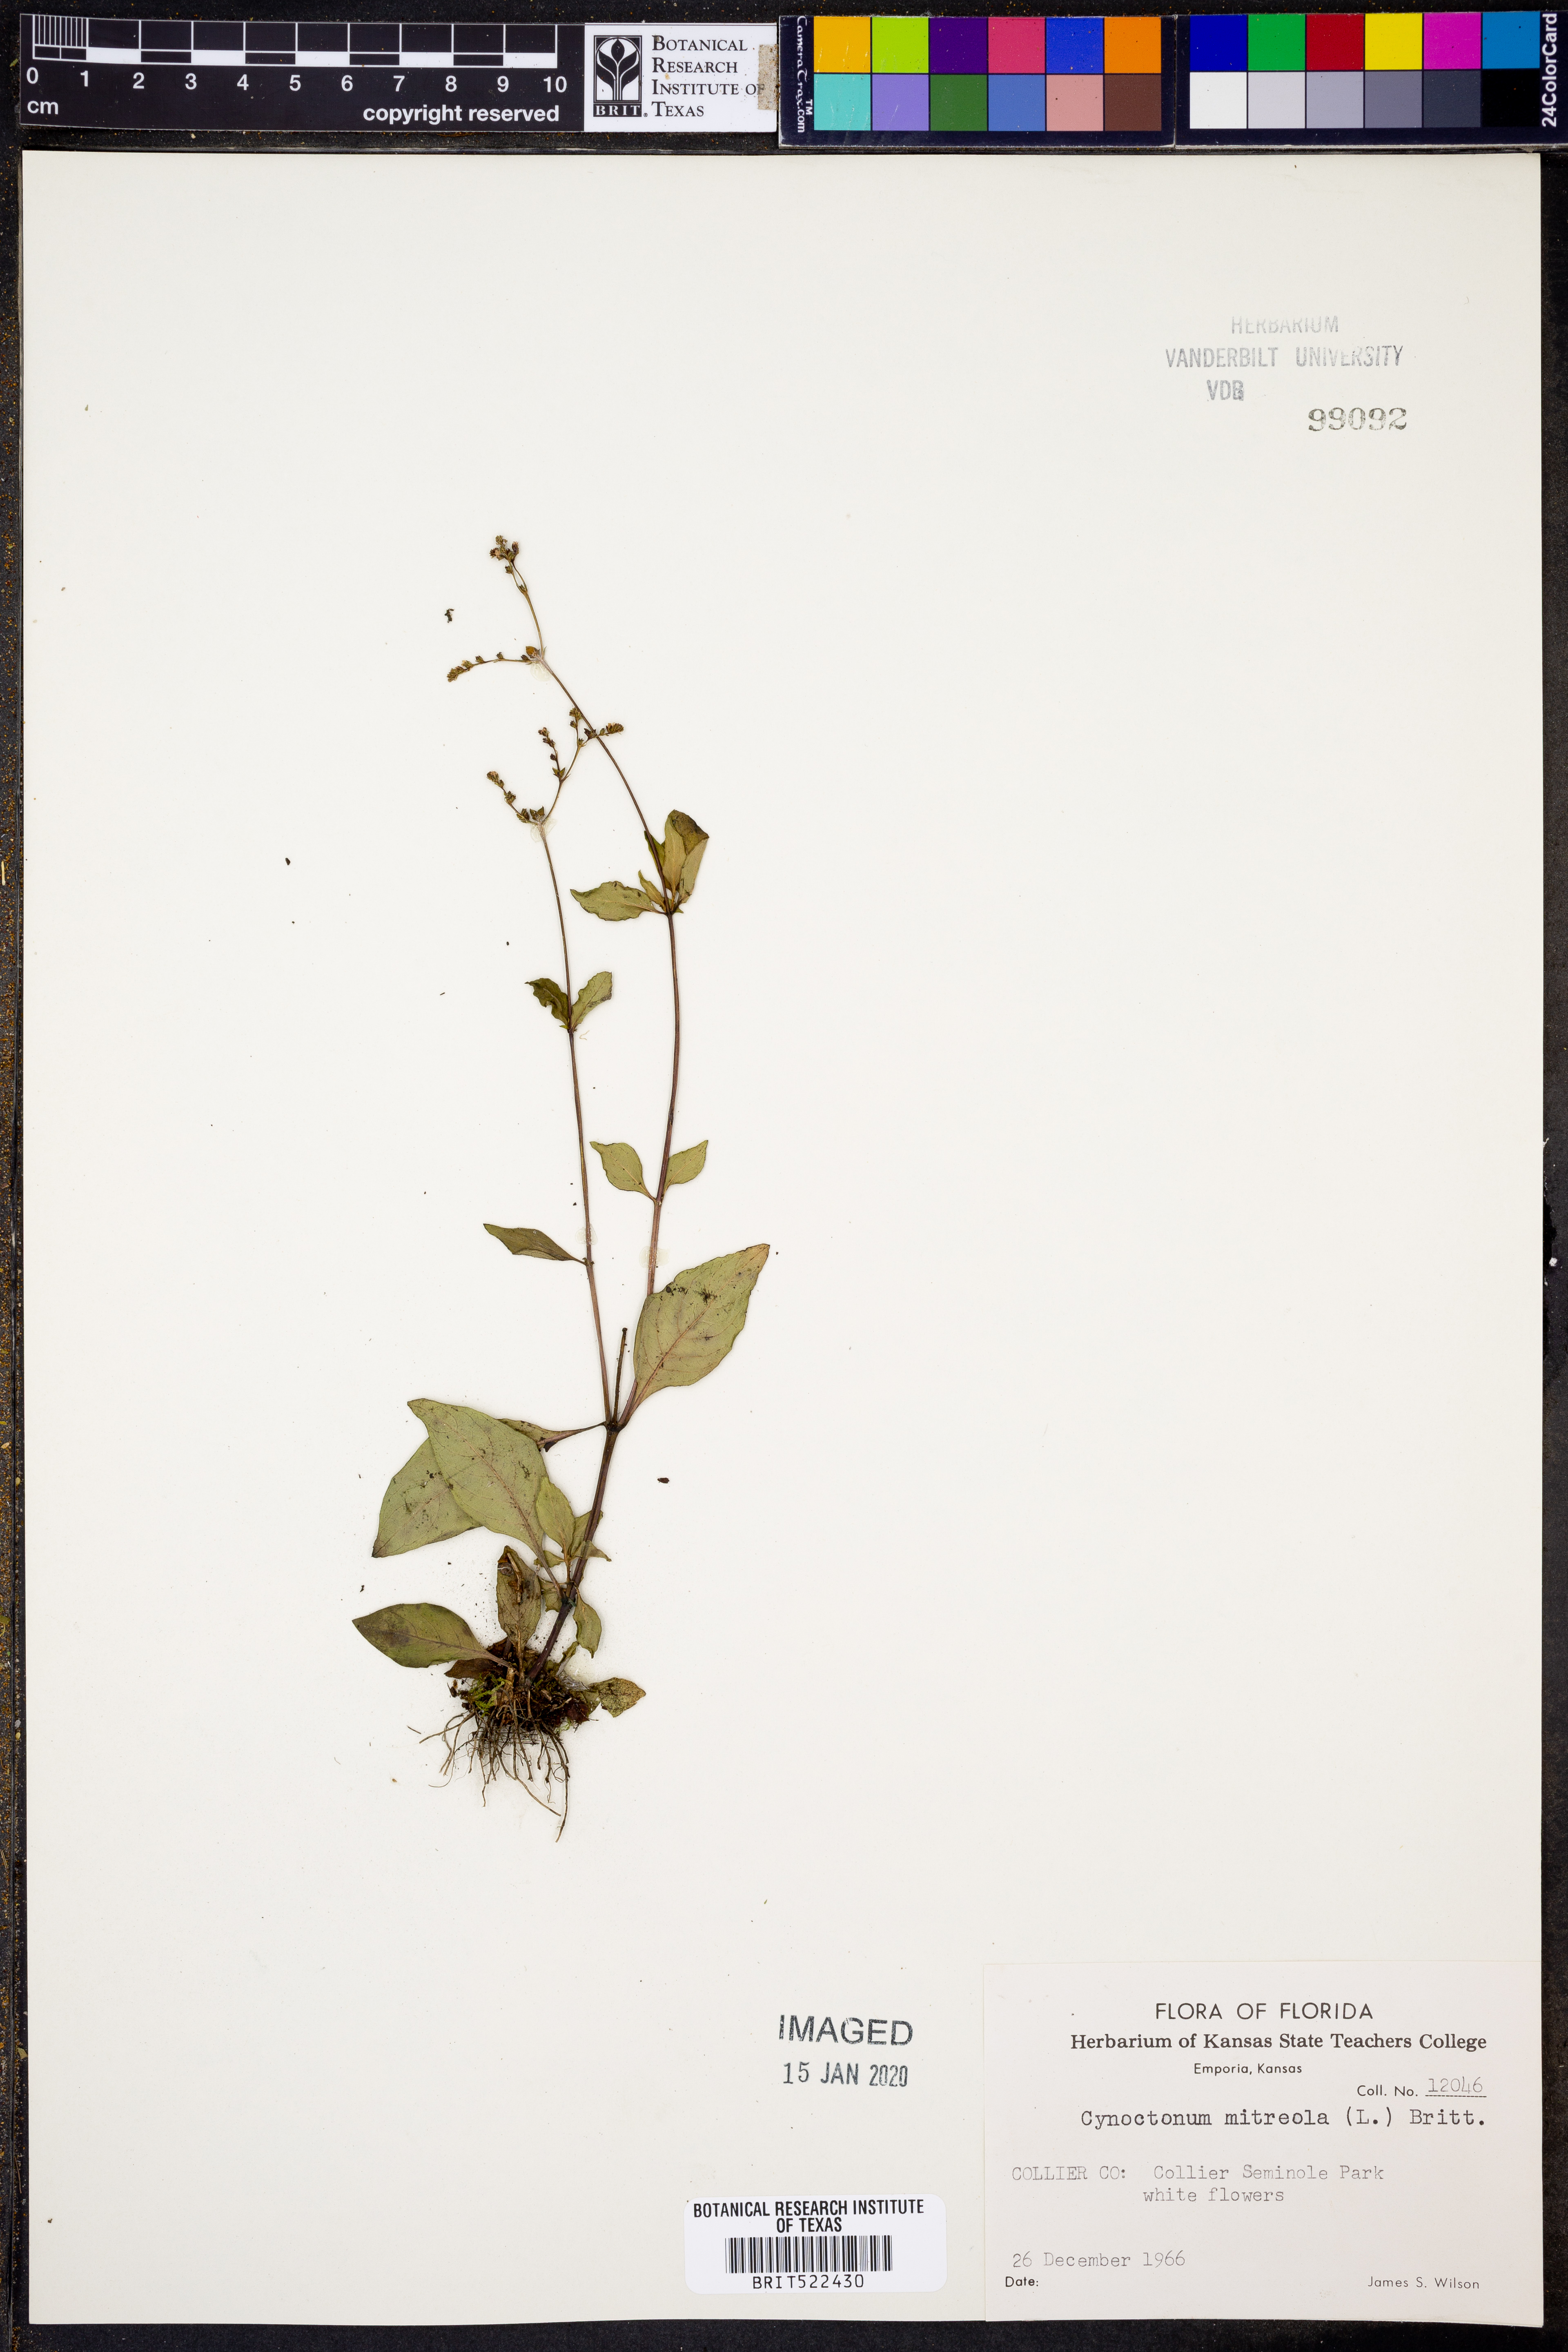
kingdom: Plantae
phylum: Tracheophyta
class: Magnoliopsida
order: Gentianales
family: Loganiaceae
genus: Mitreola
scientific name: Mitreola petiolata
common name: Lax hornpod
